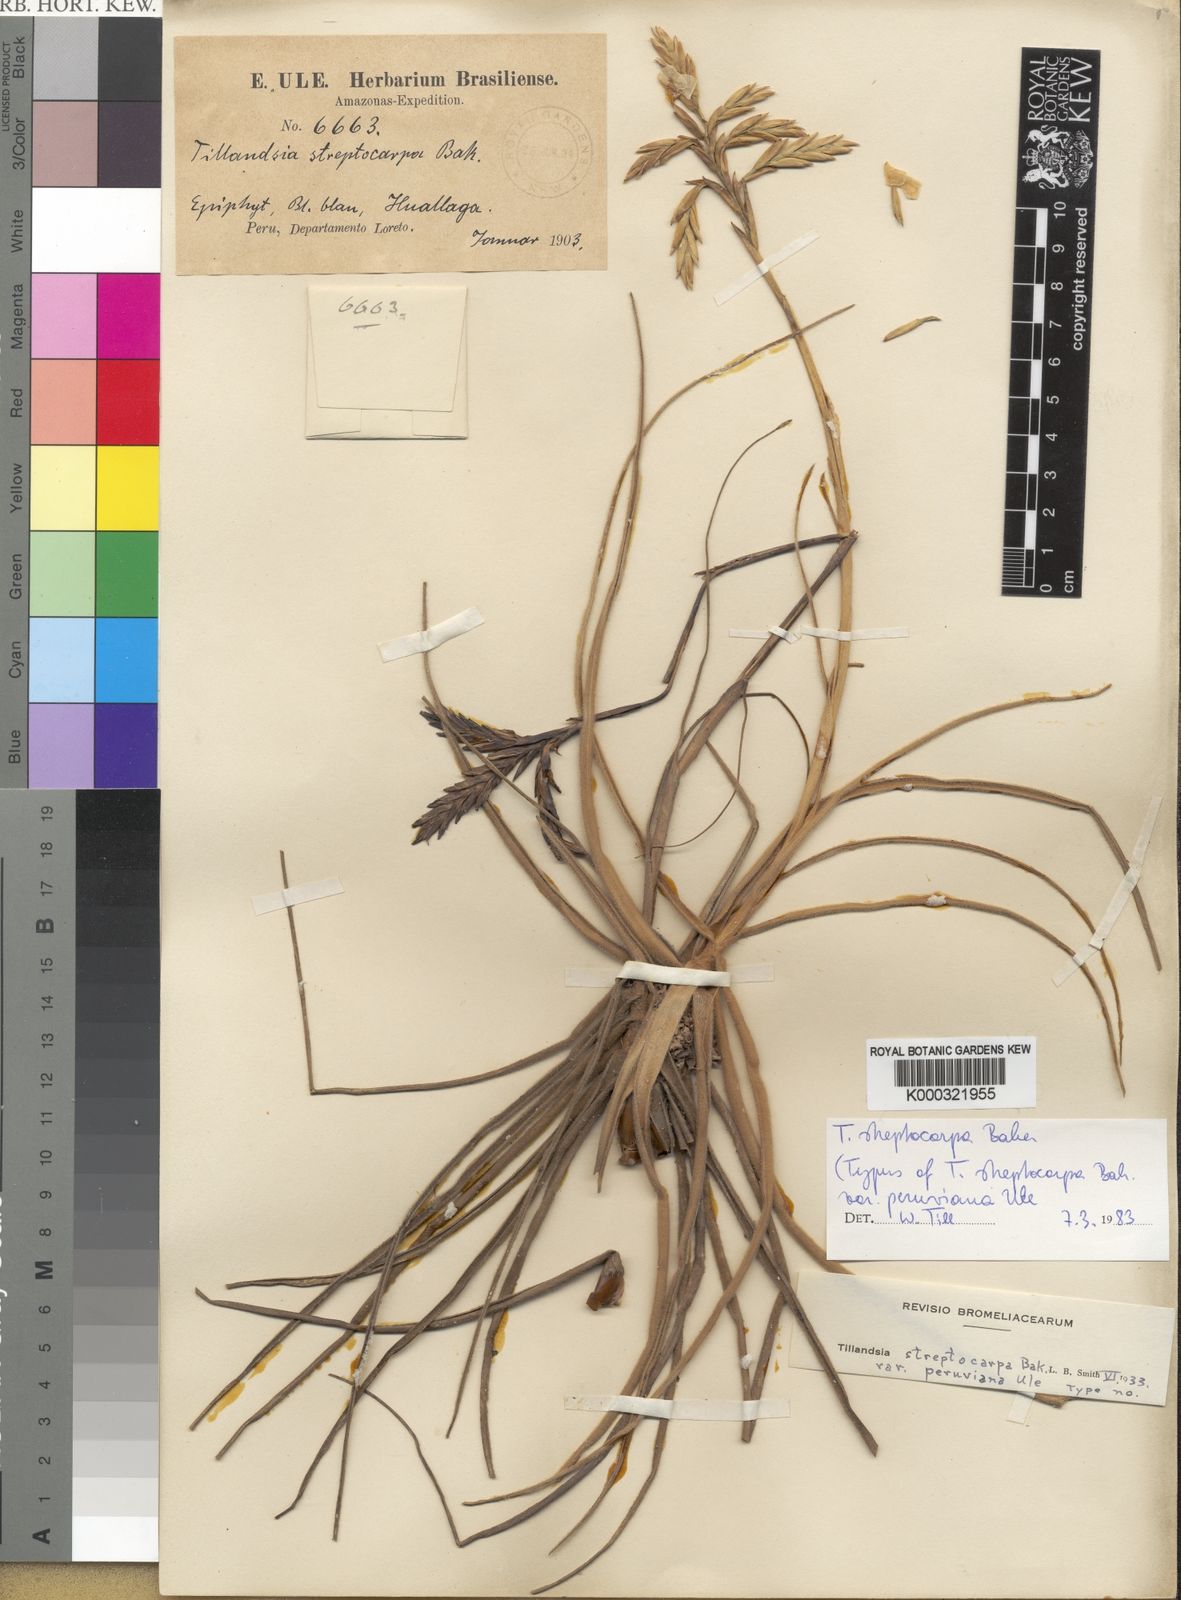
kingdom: Plantae
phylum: Tracheophyta
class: Liliopsida
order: Poales
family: Bromeliaceae
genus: Tillandsia
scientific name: Tillandsia streptocarpa
